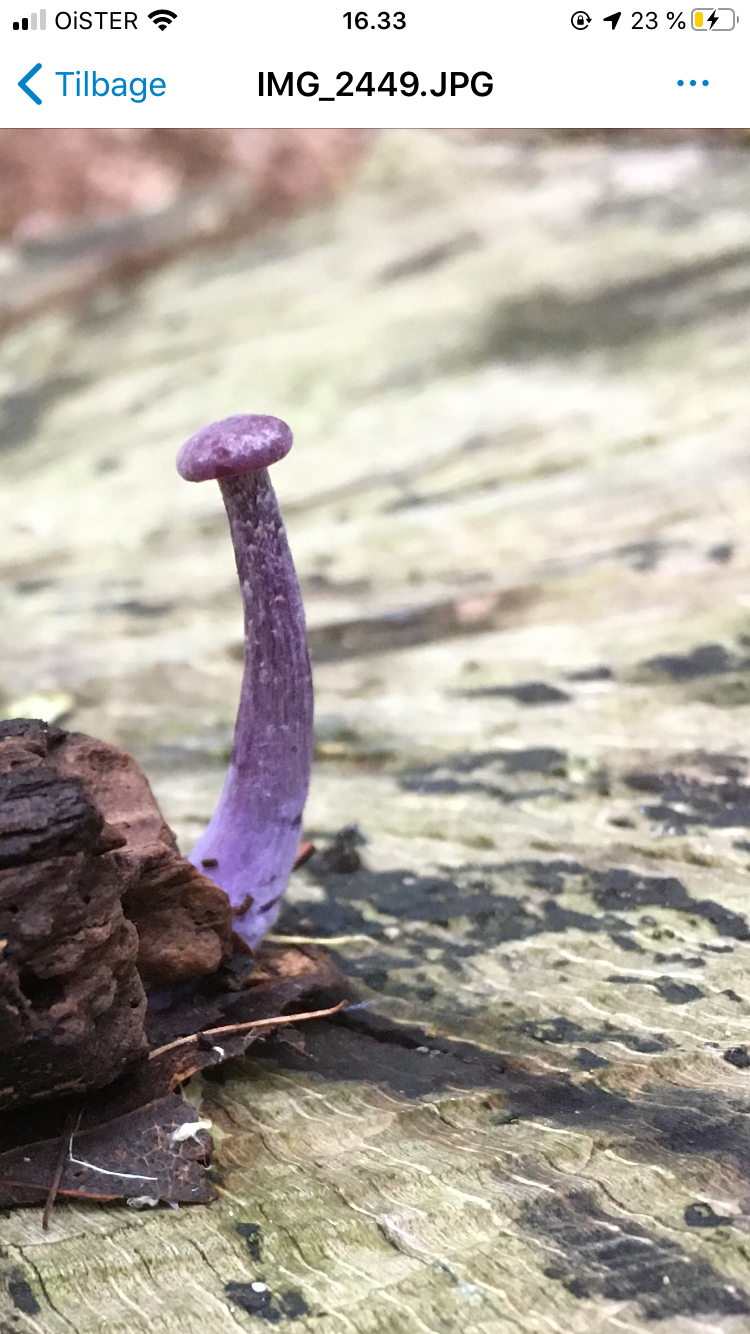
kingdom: Fungi
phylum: Basidiomycota
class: Agaricomycetes
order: Agaricales
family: Hydnangiaceae
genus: Laccaria
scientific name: Laccaria amethystina
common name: violet ametysthat
